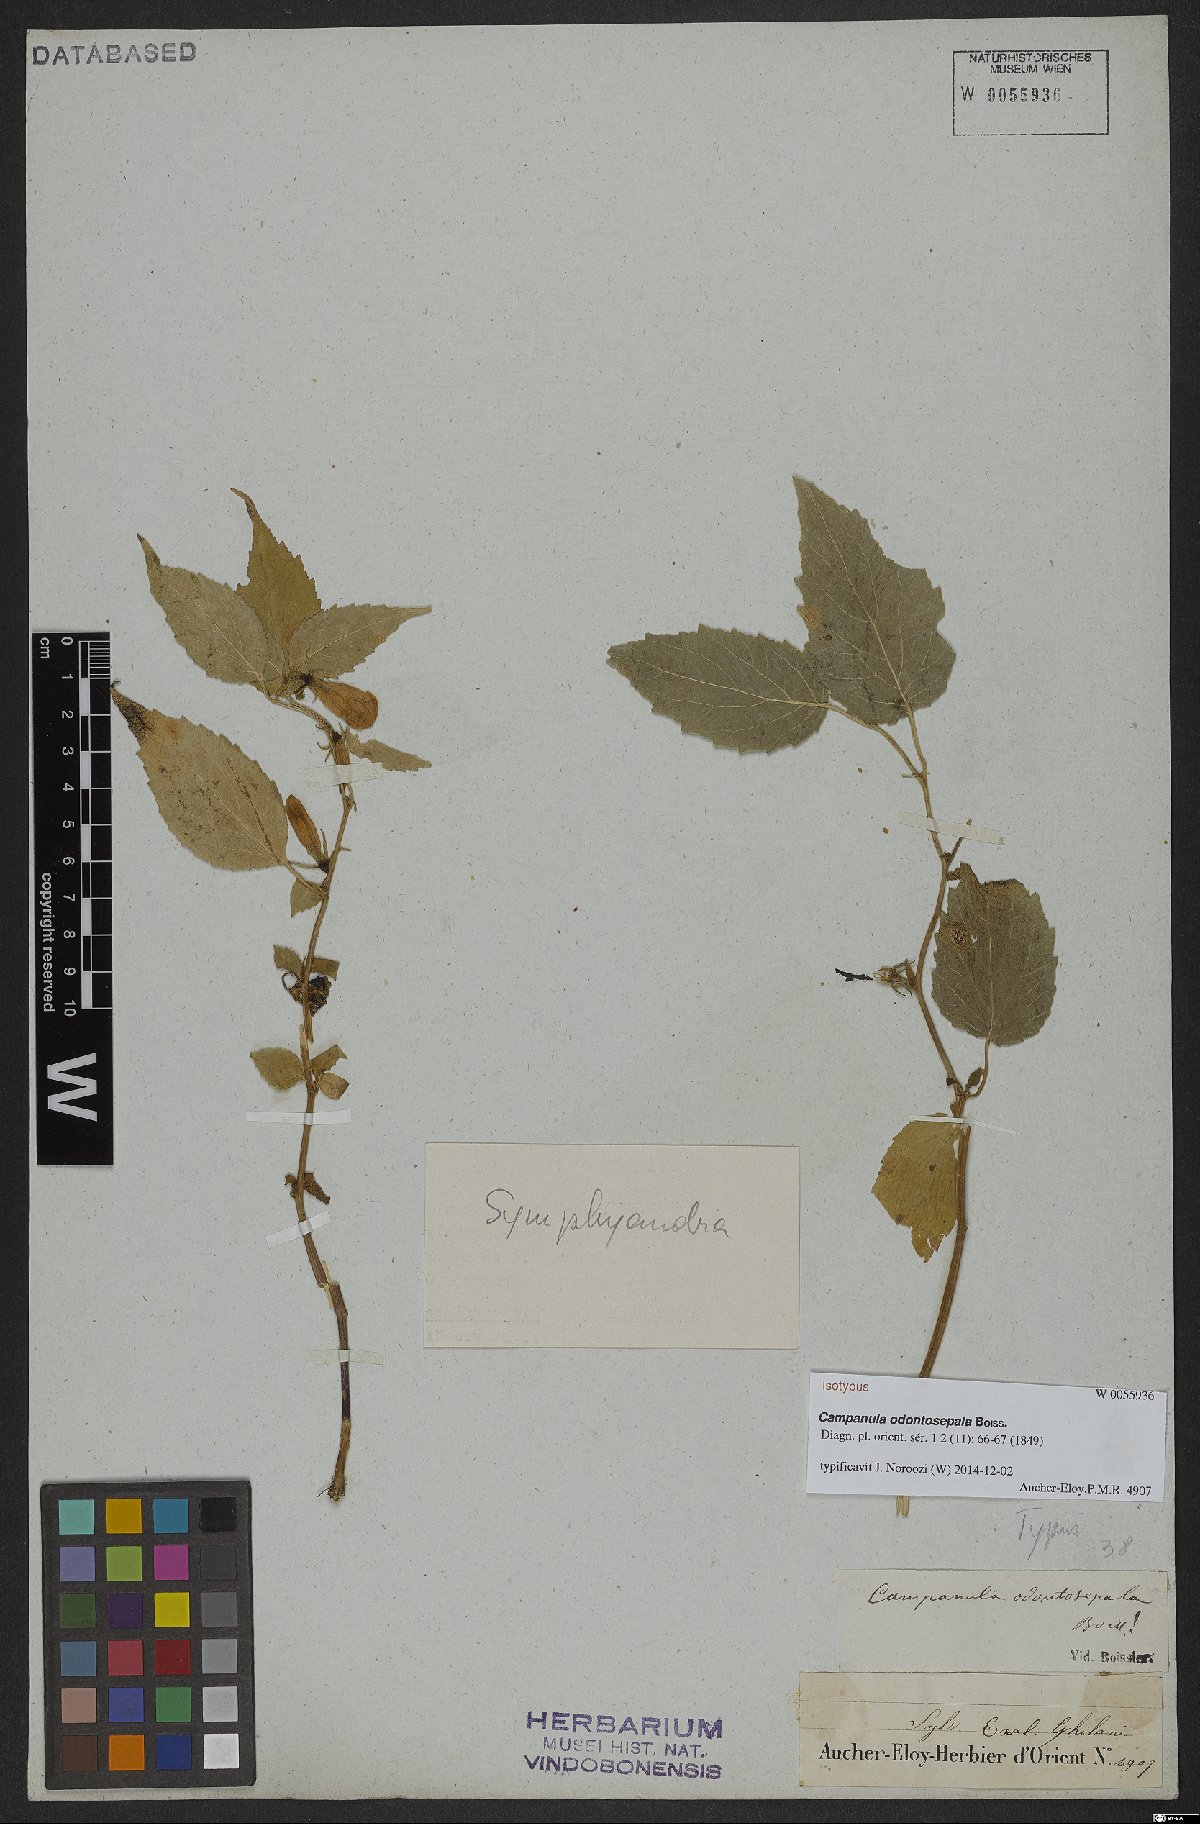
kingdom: Plantae
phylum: Tracheophyta
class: Magnoliopsida
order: Asterales
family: Campanulaceae
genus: Campanula
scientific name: Campanula odontosepala
